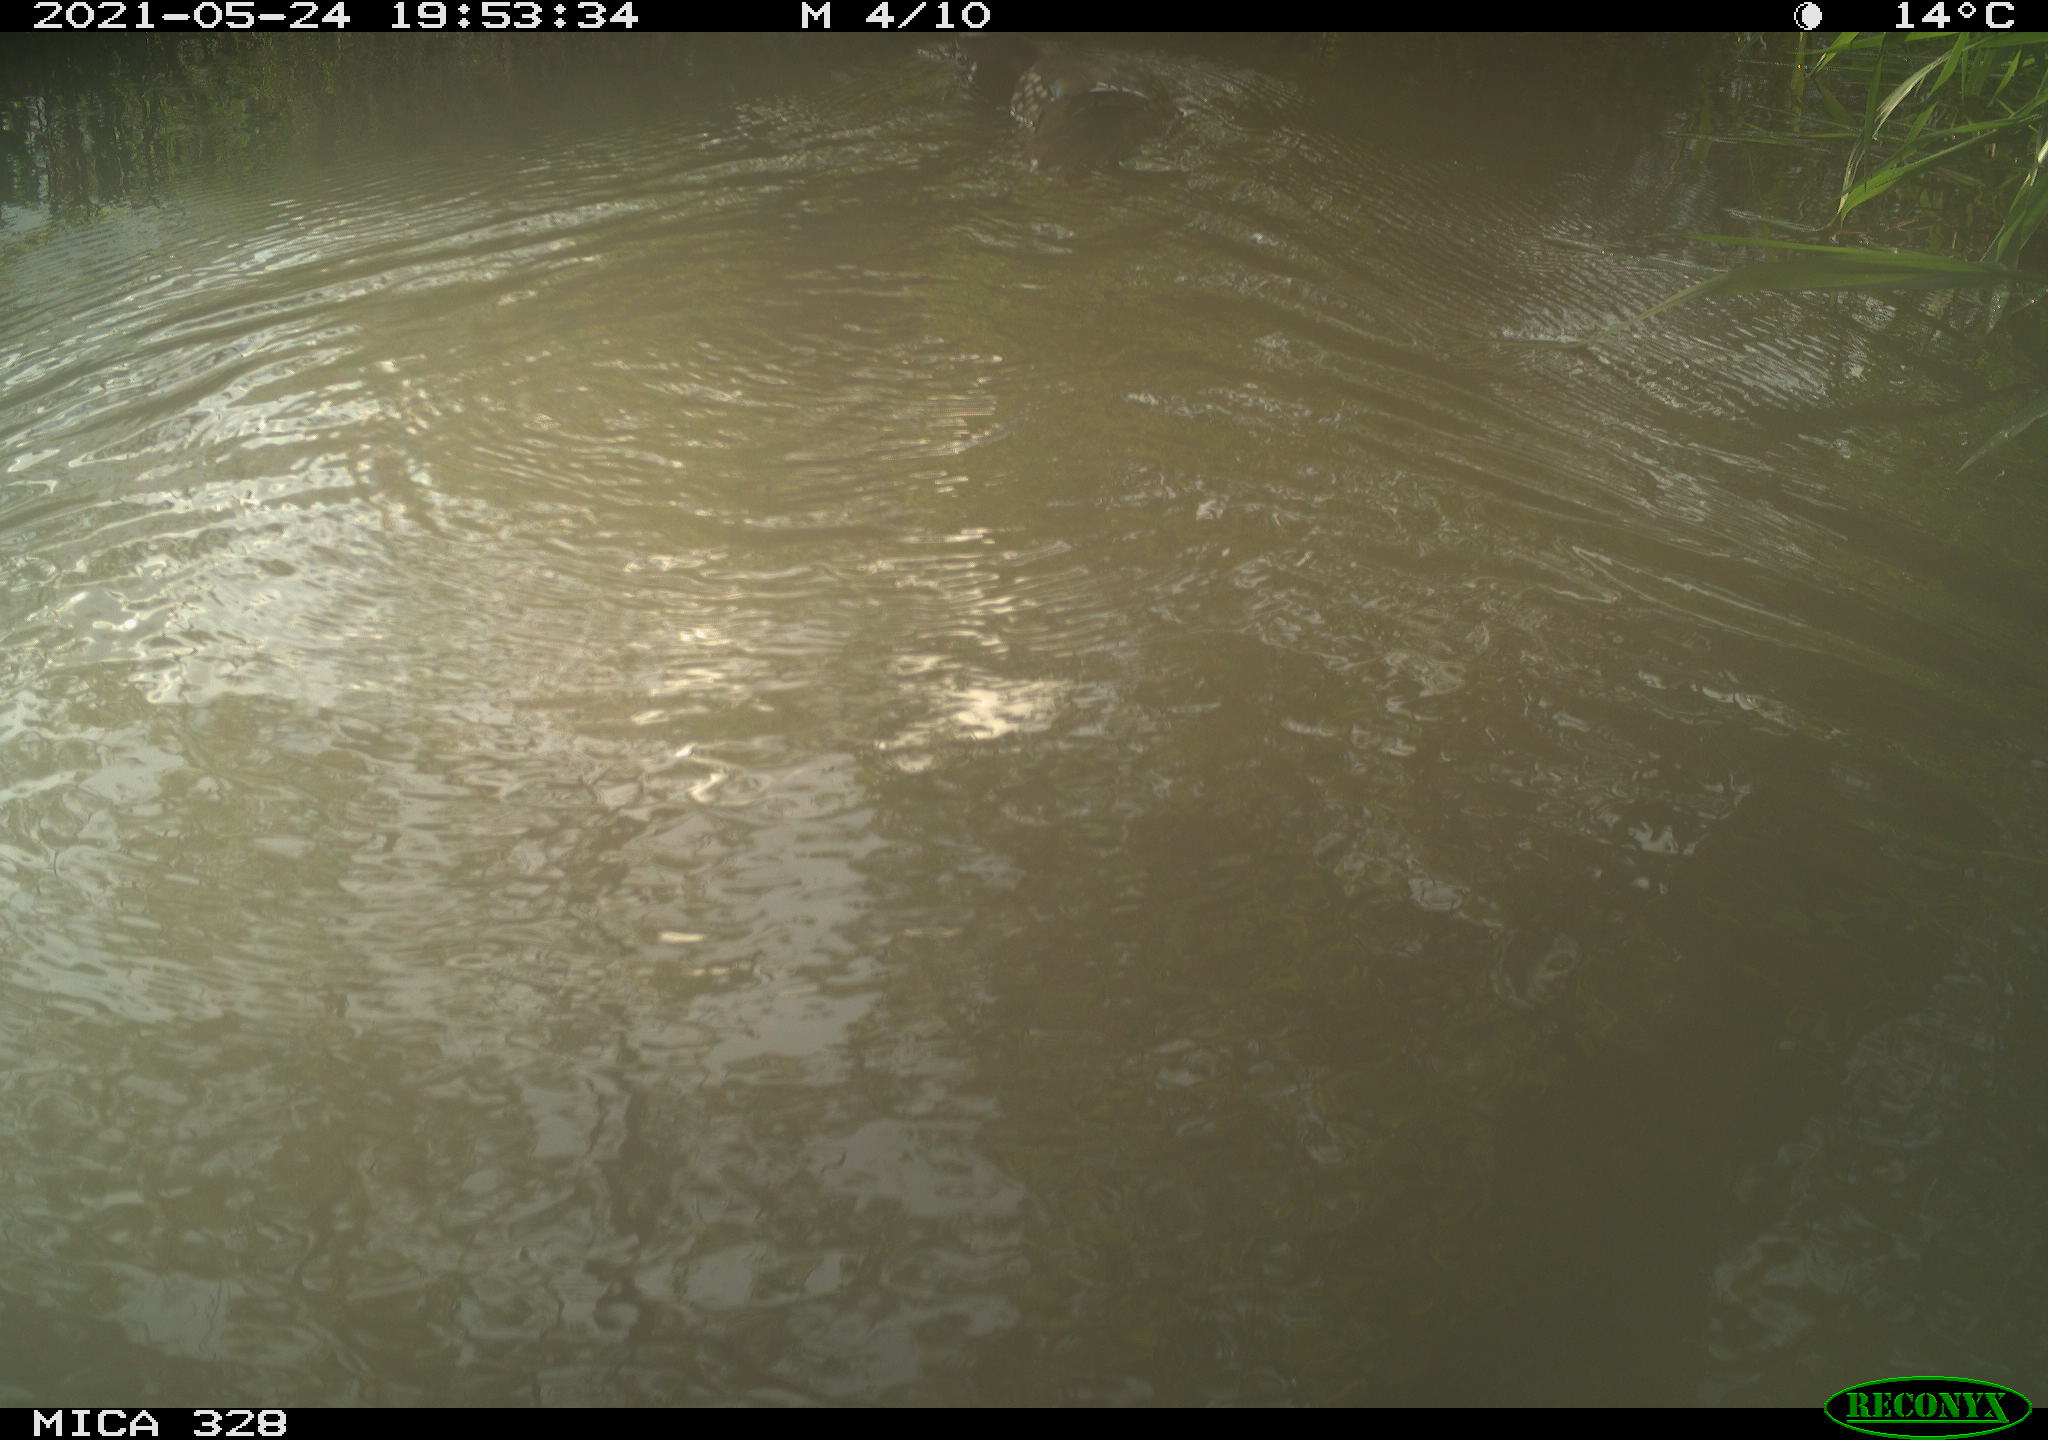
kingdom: Animalia
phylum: Chordata
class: Aves
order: Anseriformes
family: Anatidae
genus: Aix
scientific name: Aix galericulata
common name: Mandarin duck
